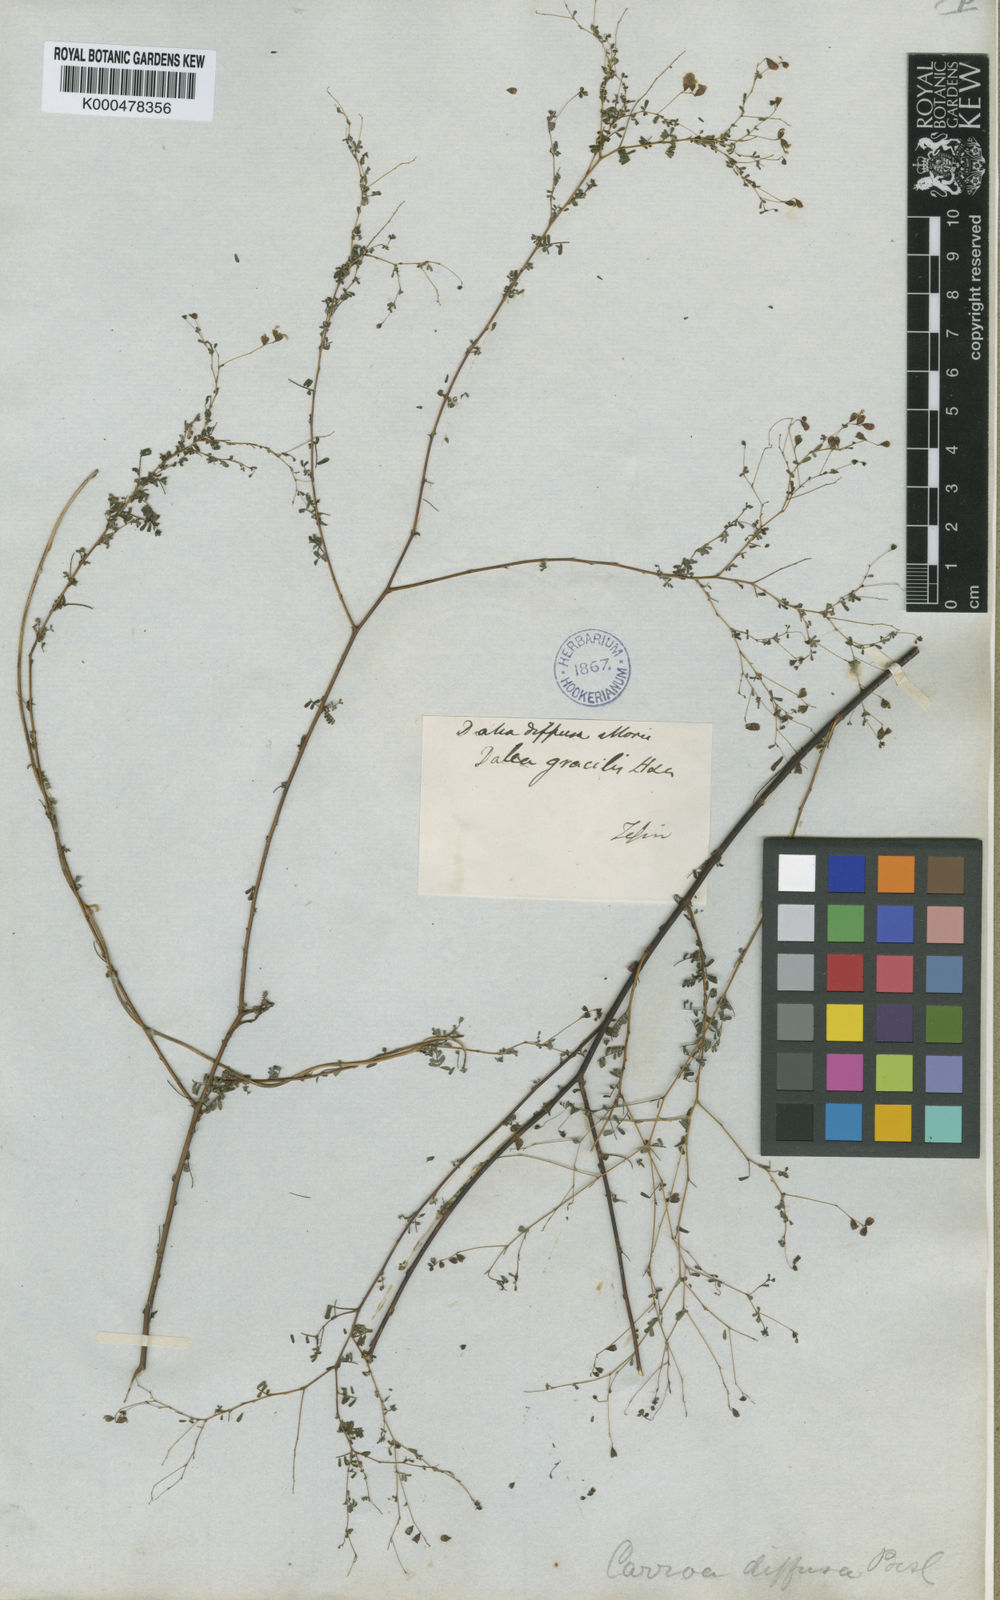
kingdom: Plantae
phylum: Tracheophyta
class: Magnoliopsida
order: Fabales
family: Fabaceae
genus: Marina
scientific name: Marina diffusa
